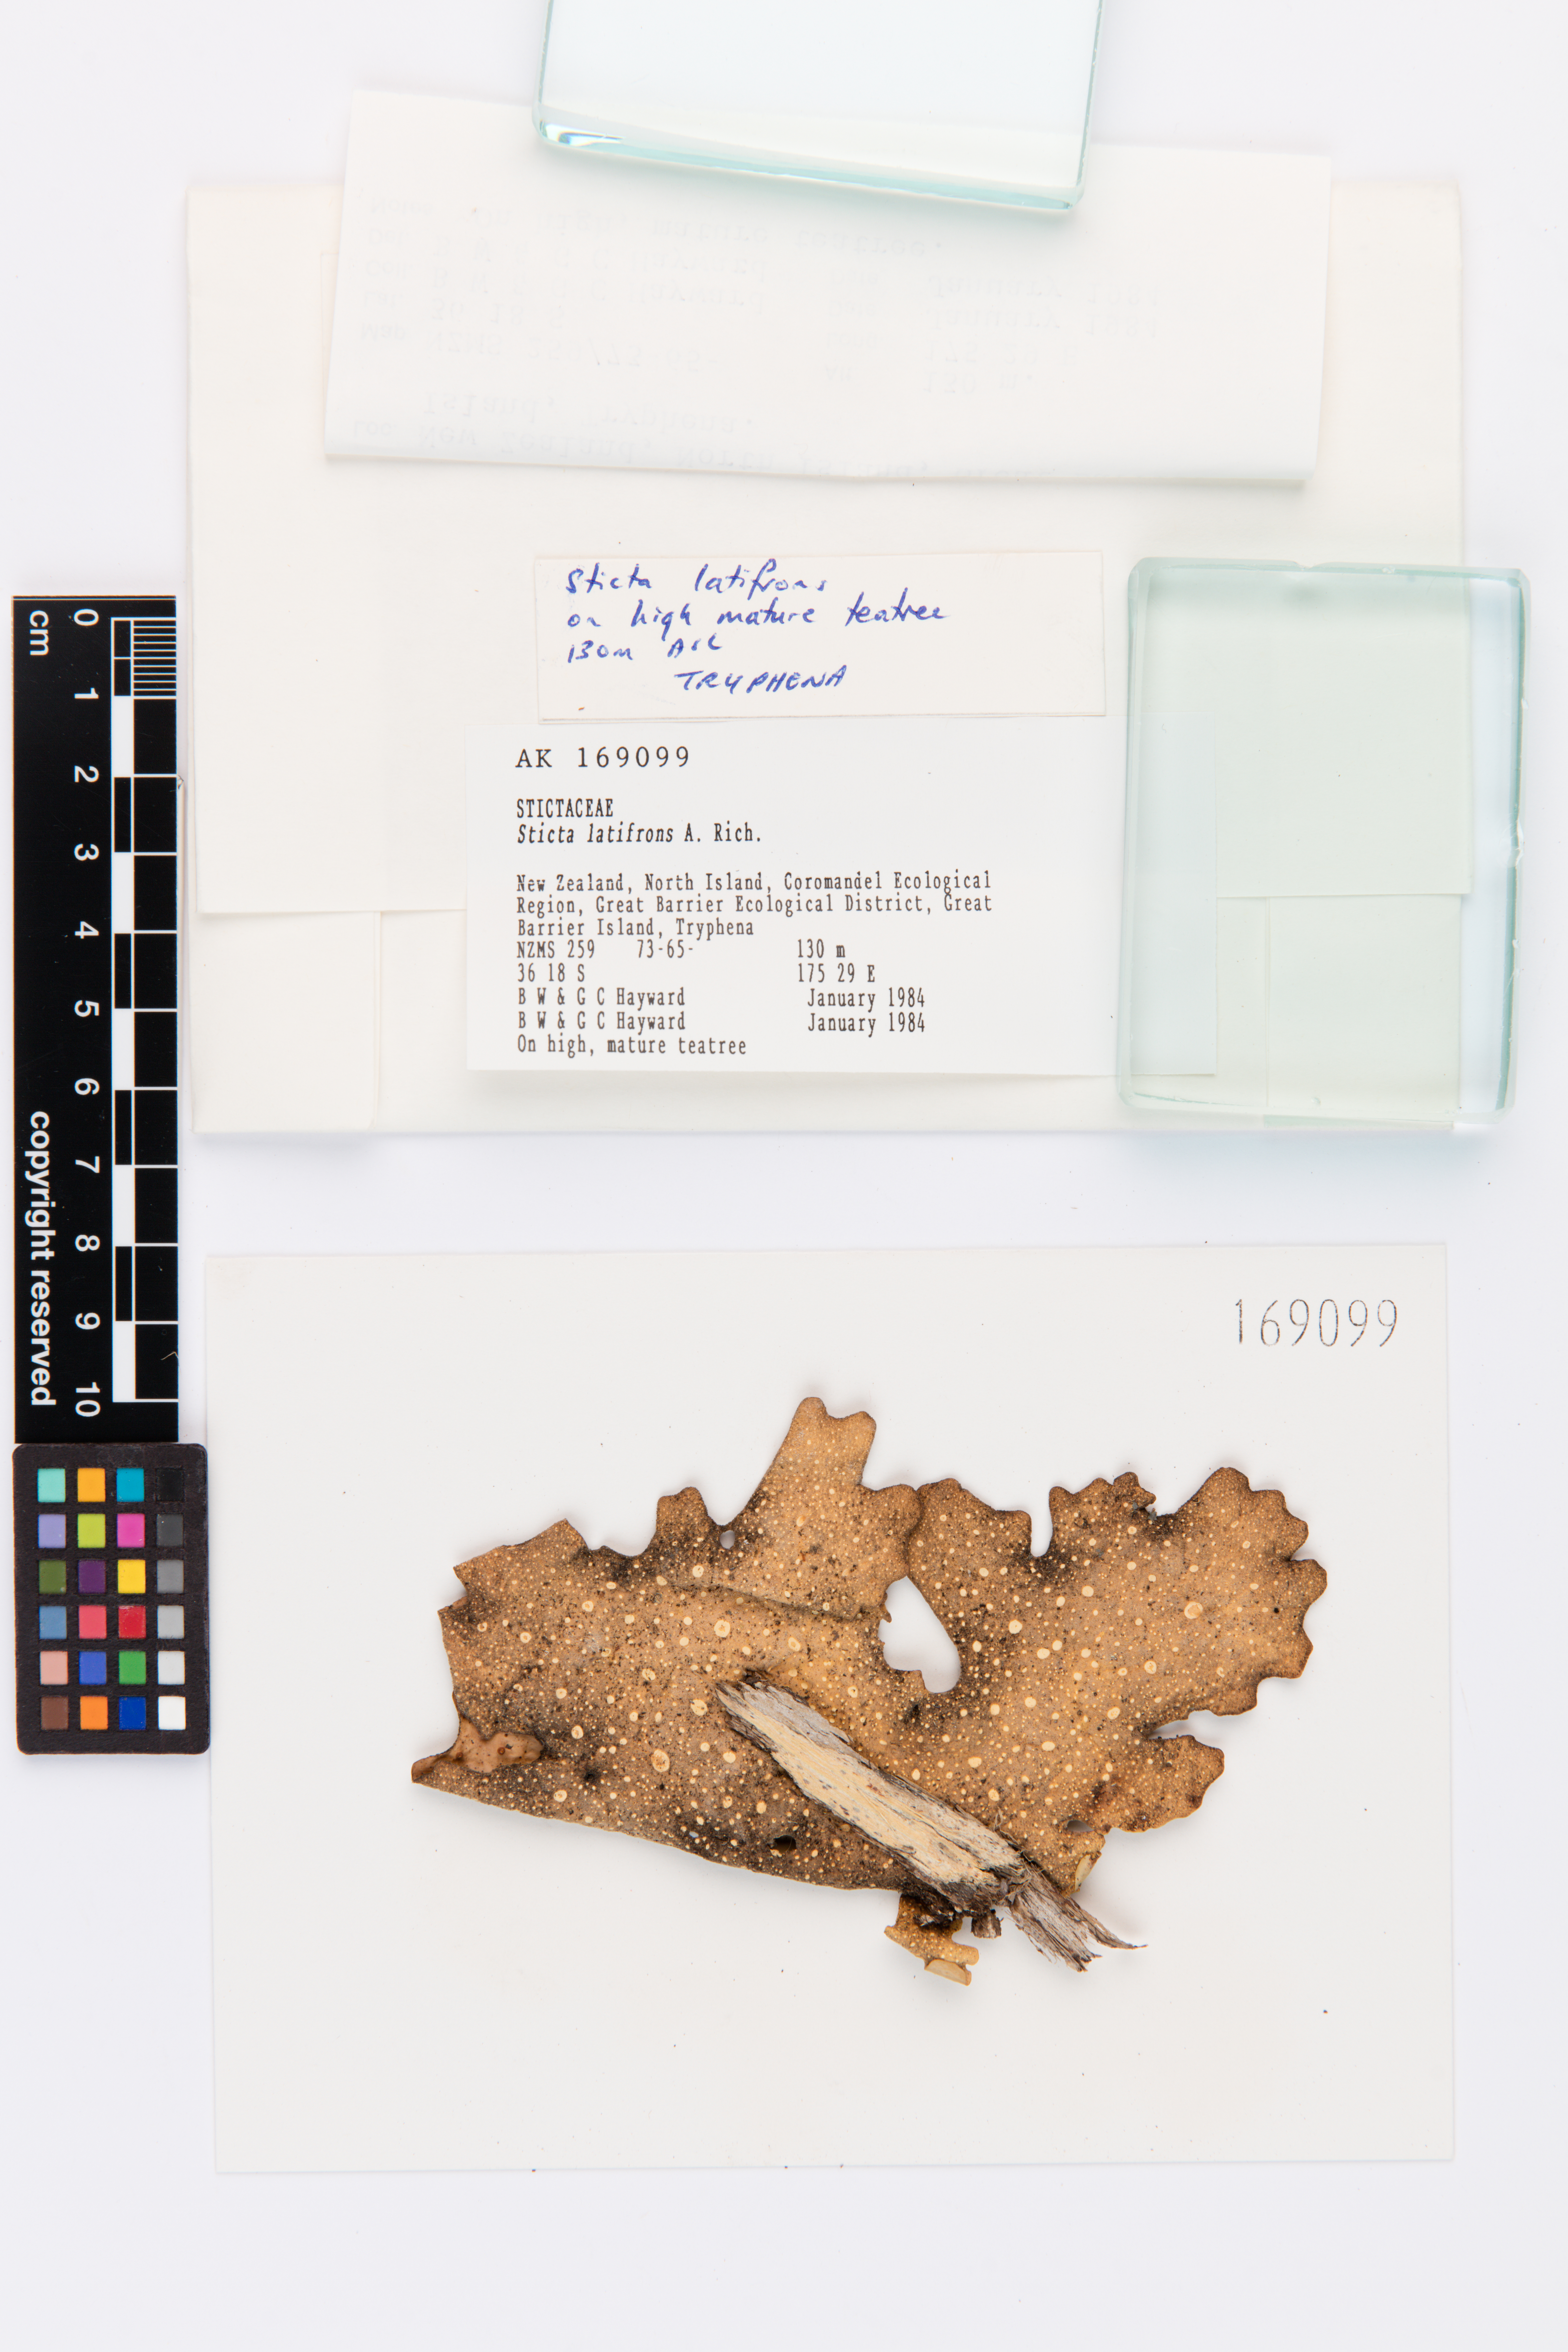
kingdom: Fungi
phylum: Ascomycota
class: Lecanoromycetes
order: Peltigerales
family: Lobariaceae
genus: Sticta
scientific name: Sticta latifrons
